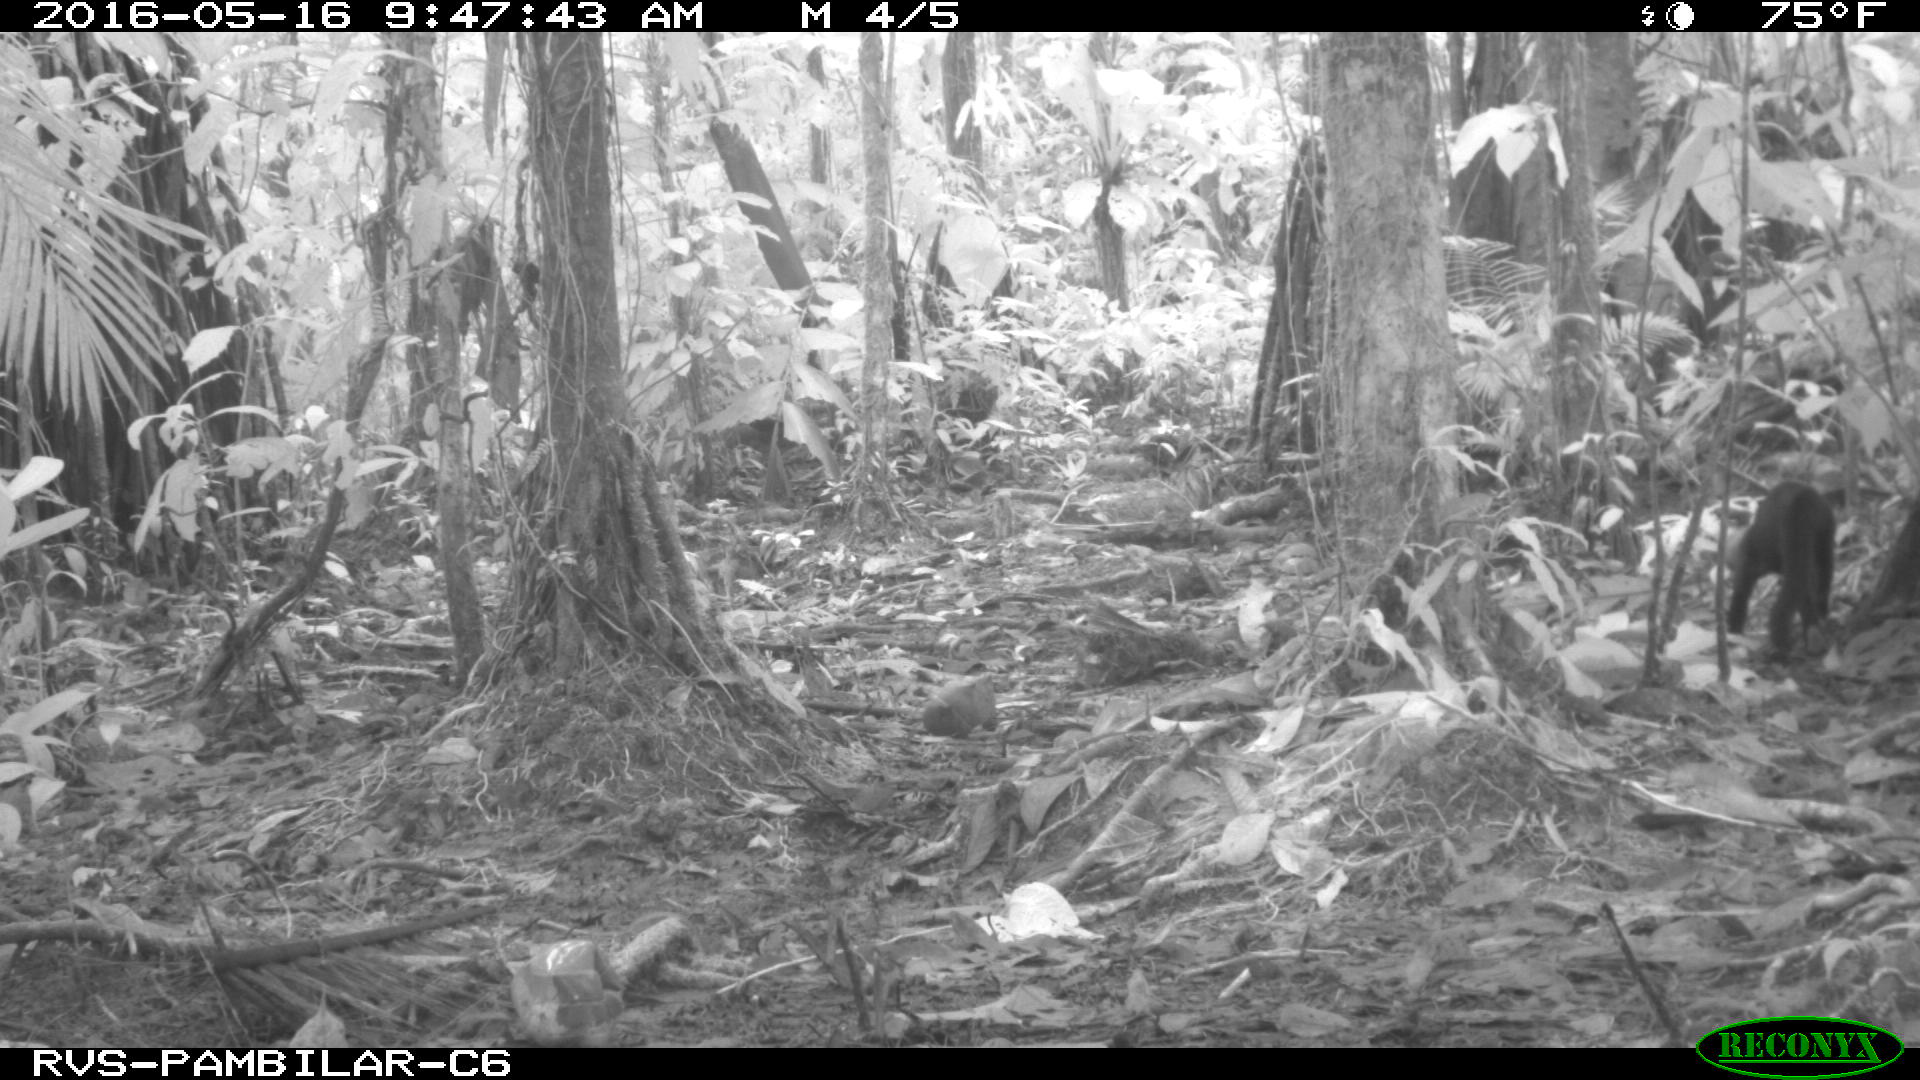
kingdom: Animalia
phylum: Chordata
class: Mammalia
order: Carnivora
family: Mustelidae
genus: Eira
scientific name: Eira barbara
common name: Tayra
